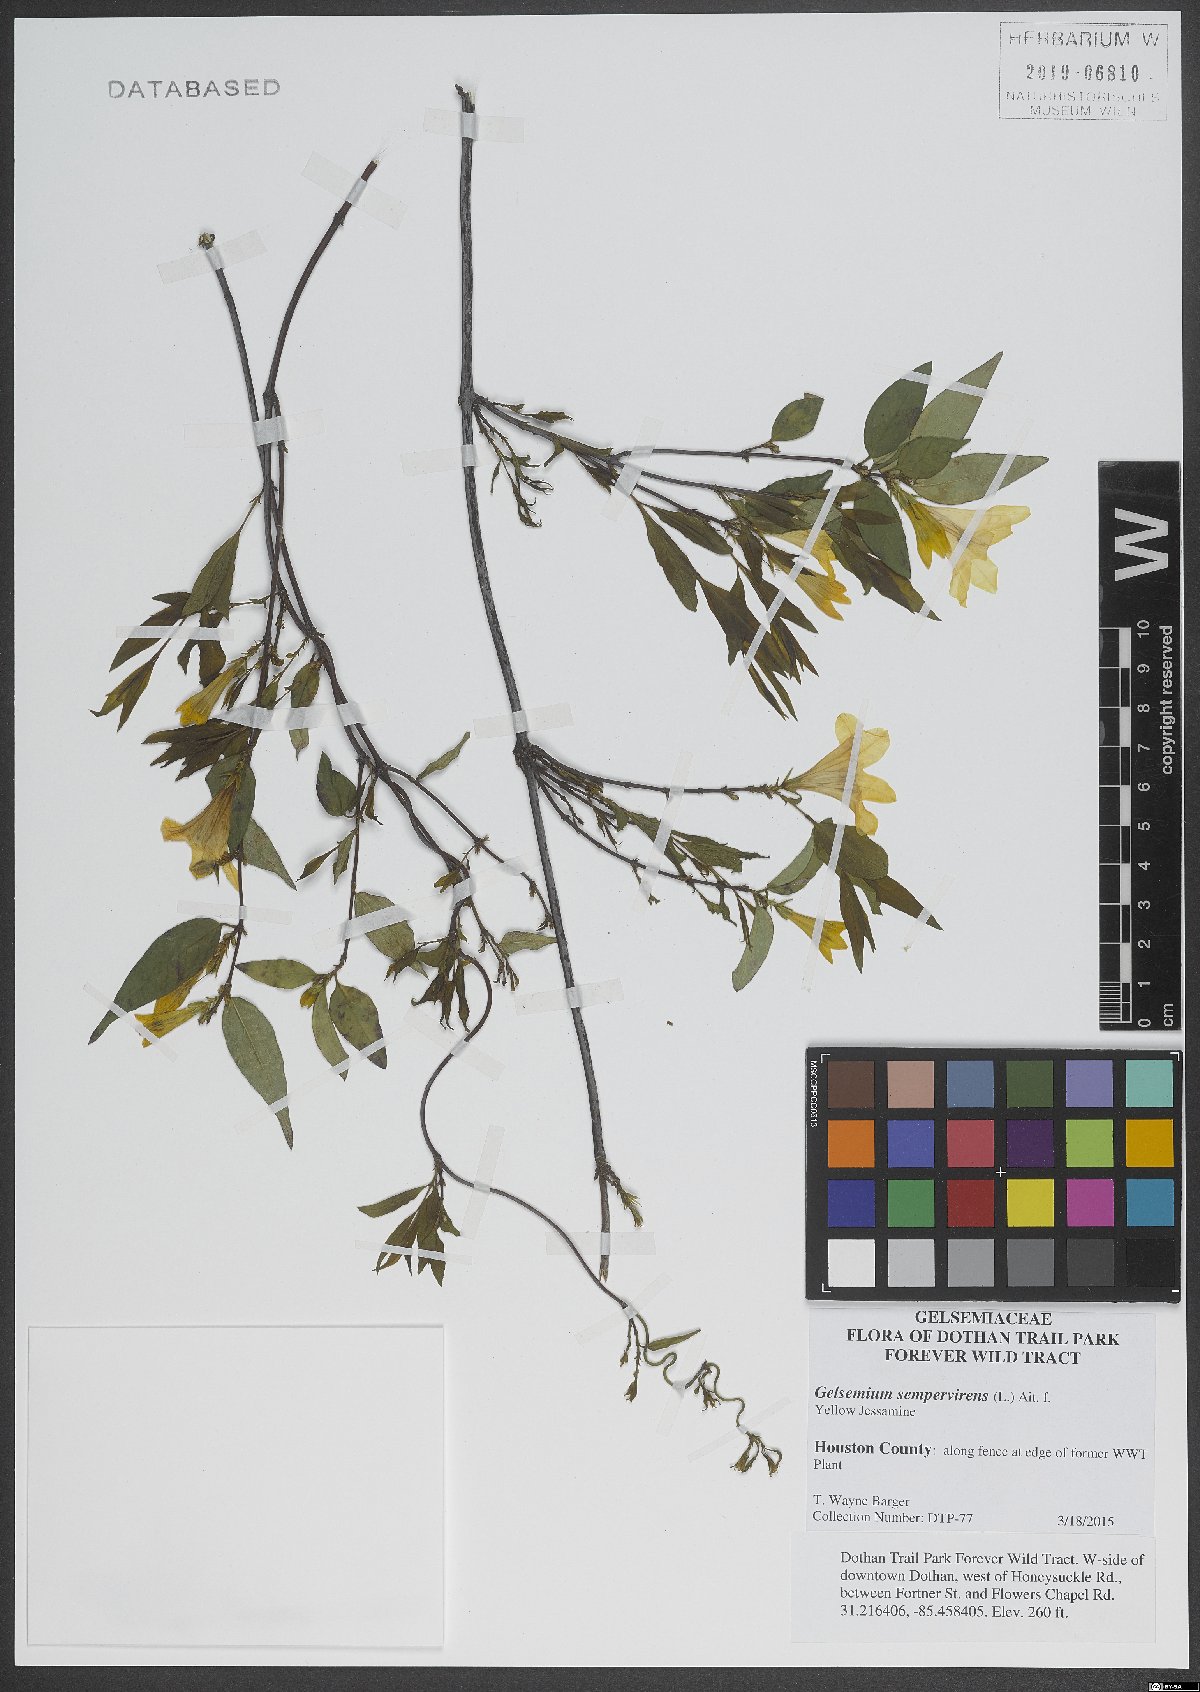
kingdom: Plantae
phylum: Tracheophyta
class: Magnoliopsida
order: Gentianales
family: Gelsemiaceae
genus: Gelsemium
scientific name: Gelsemium sempervirens
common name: Carolina-jasmine
